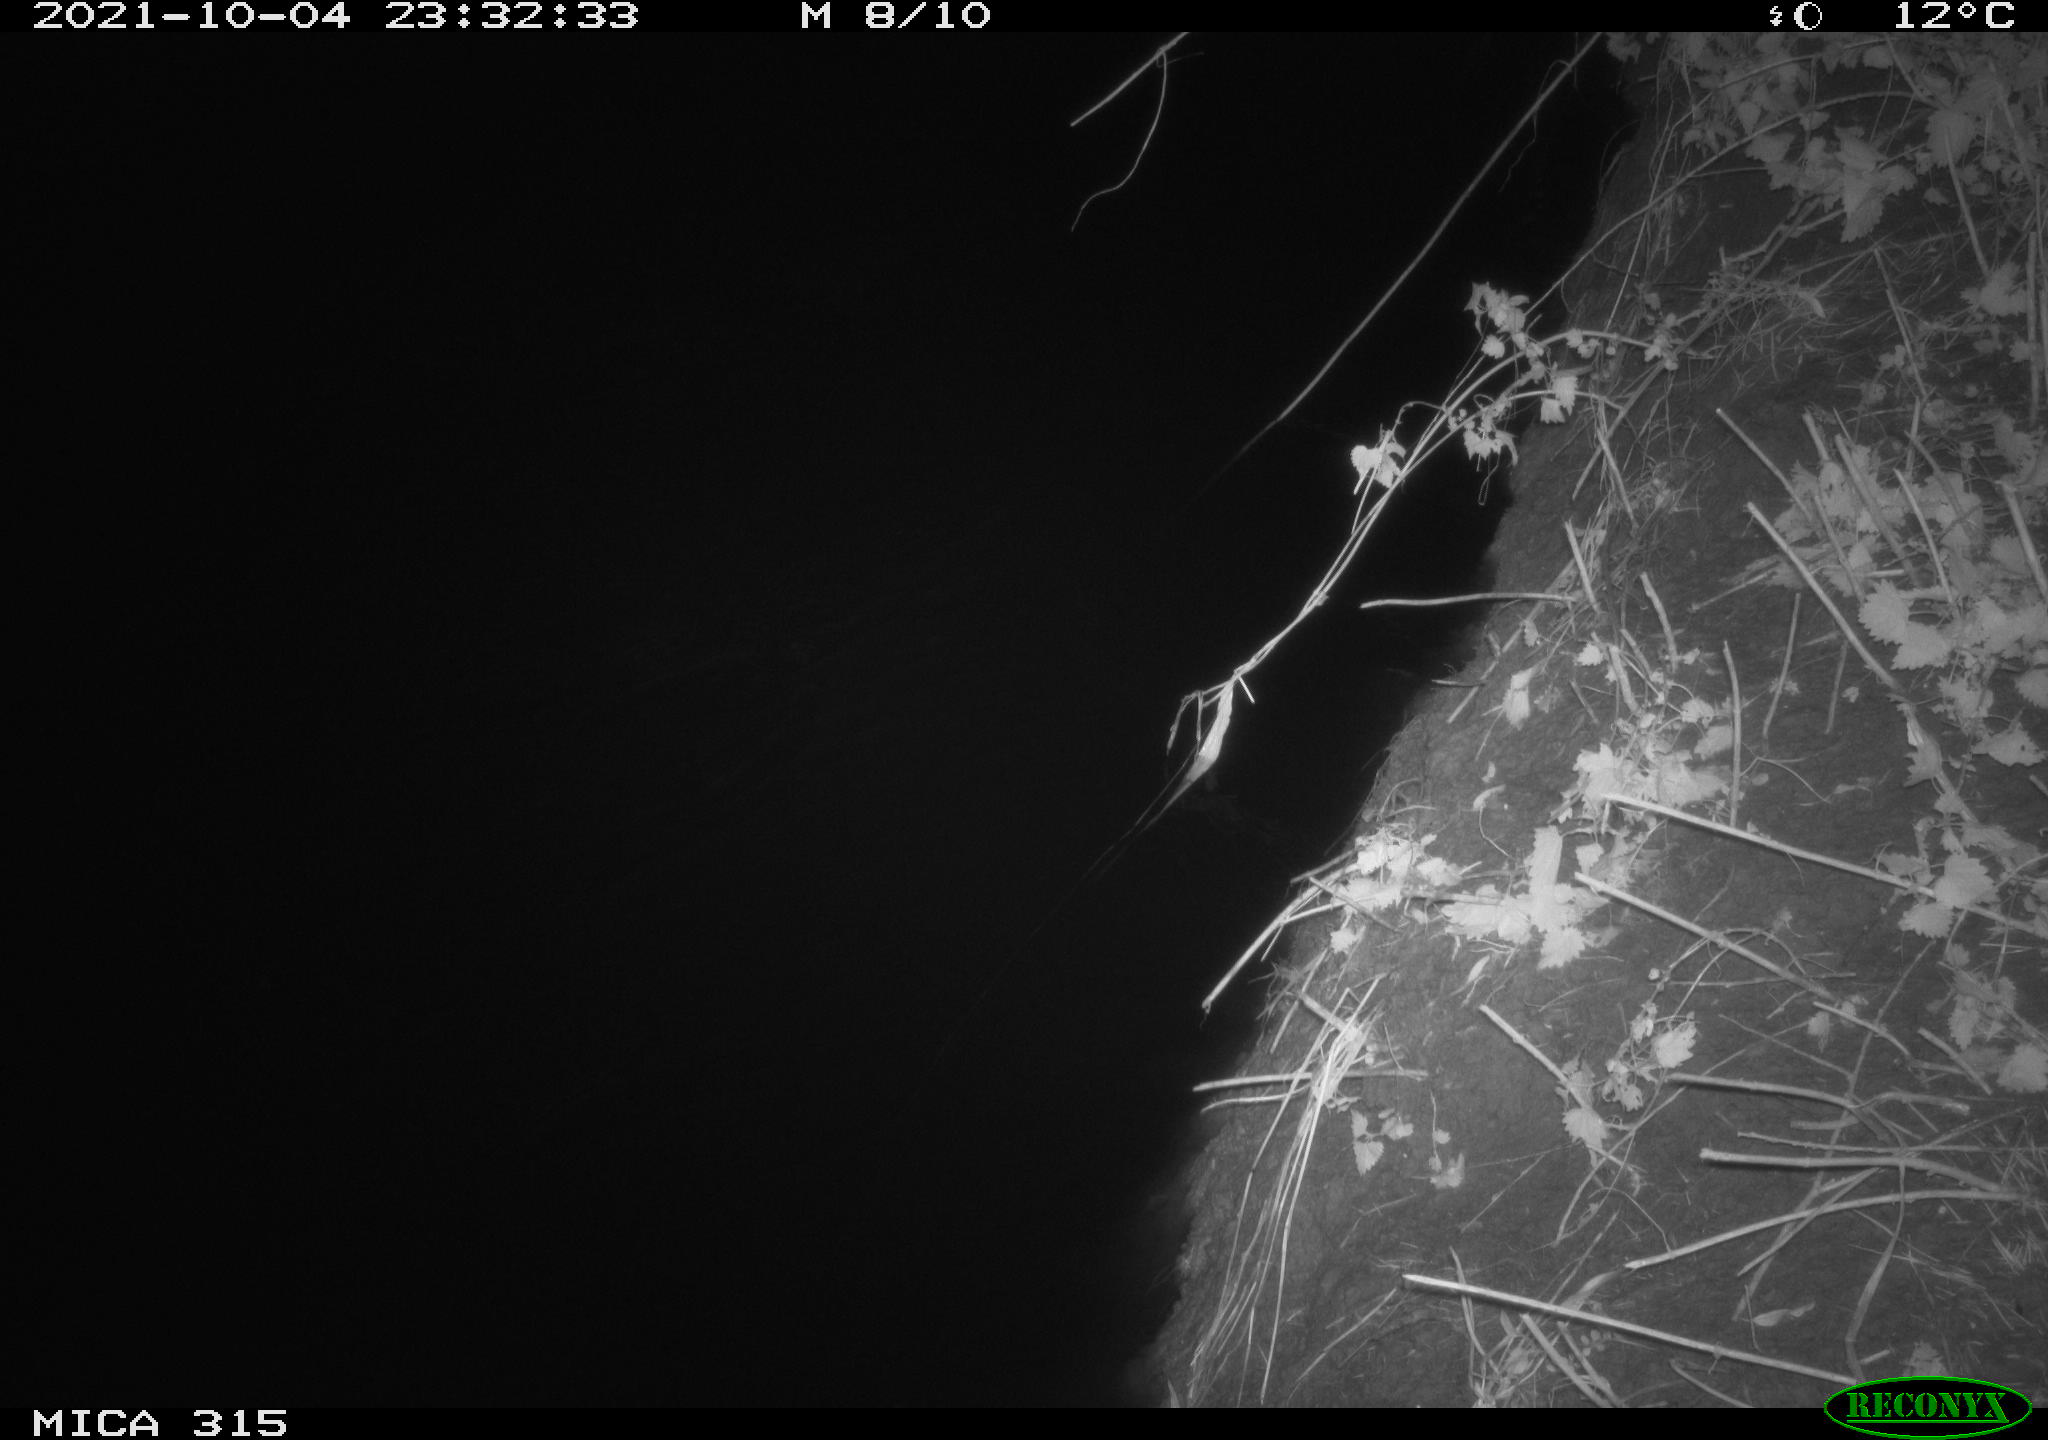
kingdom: Animalia
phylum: Chordata
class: Mammalia
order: Rodentia
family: Muridae
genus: Rattus
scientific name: Rattus norvegicus
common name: Brown rat
